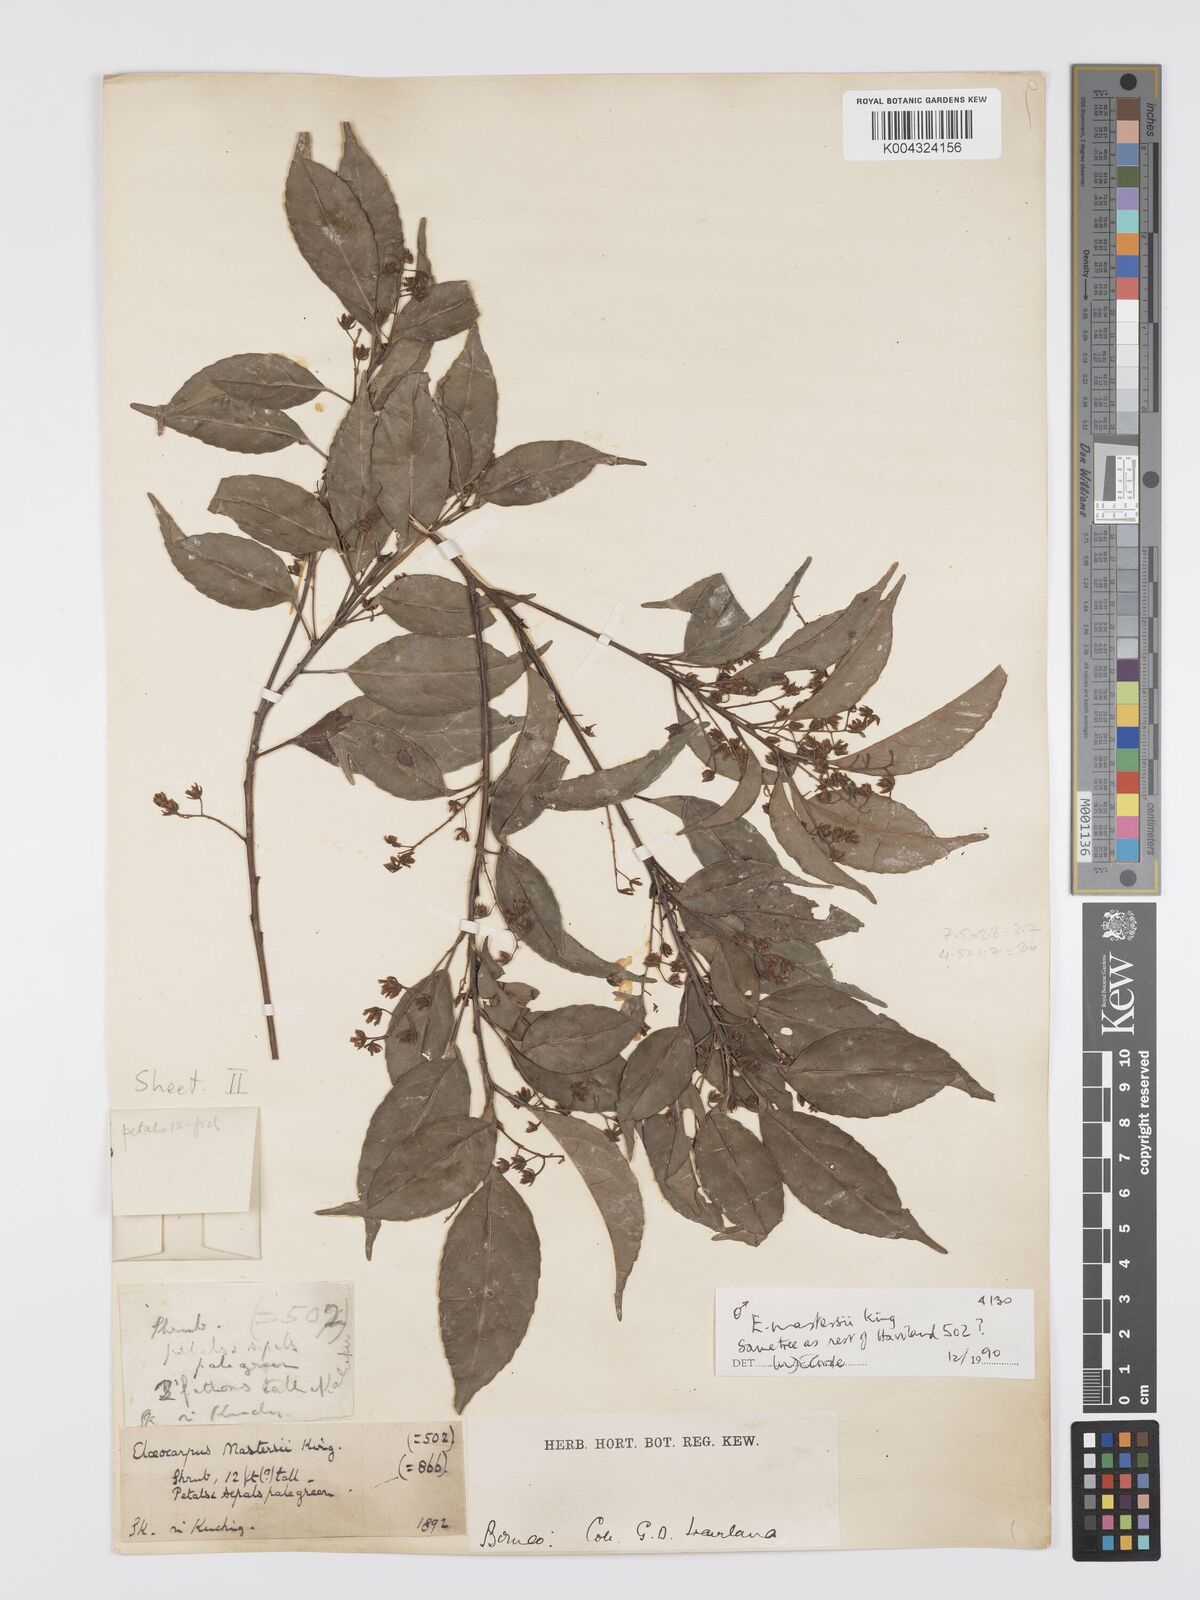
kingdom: Plantae
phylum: Tracheophyta
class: Magnoliopsida
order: Oxalidales
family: Elaeocarpaceae
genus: Elaeocarpus
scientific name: Elaeocarpus mastersii
